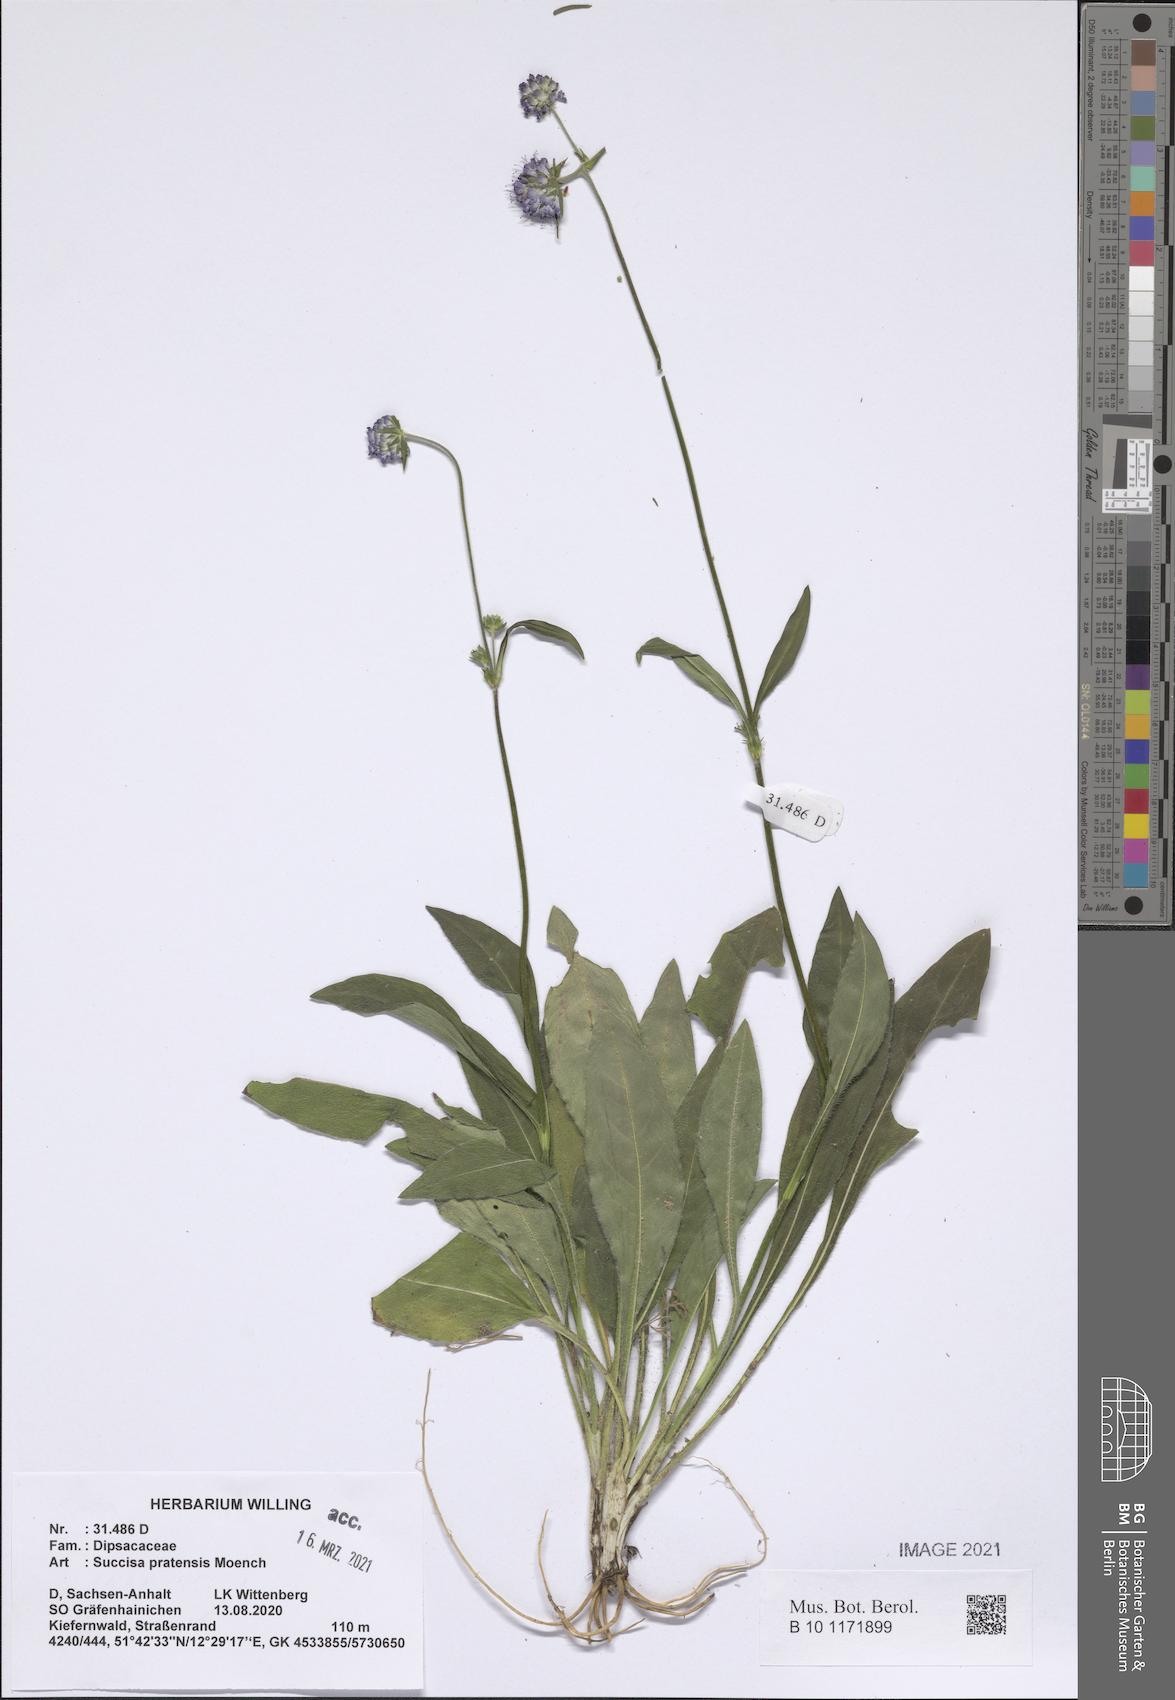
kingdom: Plantae
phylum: Tracheophyta
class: Magnoliopsida
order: Dipsacales
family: Caprifoliaceae
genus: Succisa
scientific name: Succisa pratensis
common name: Devil's-bit
